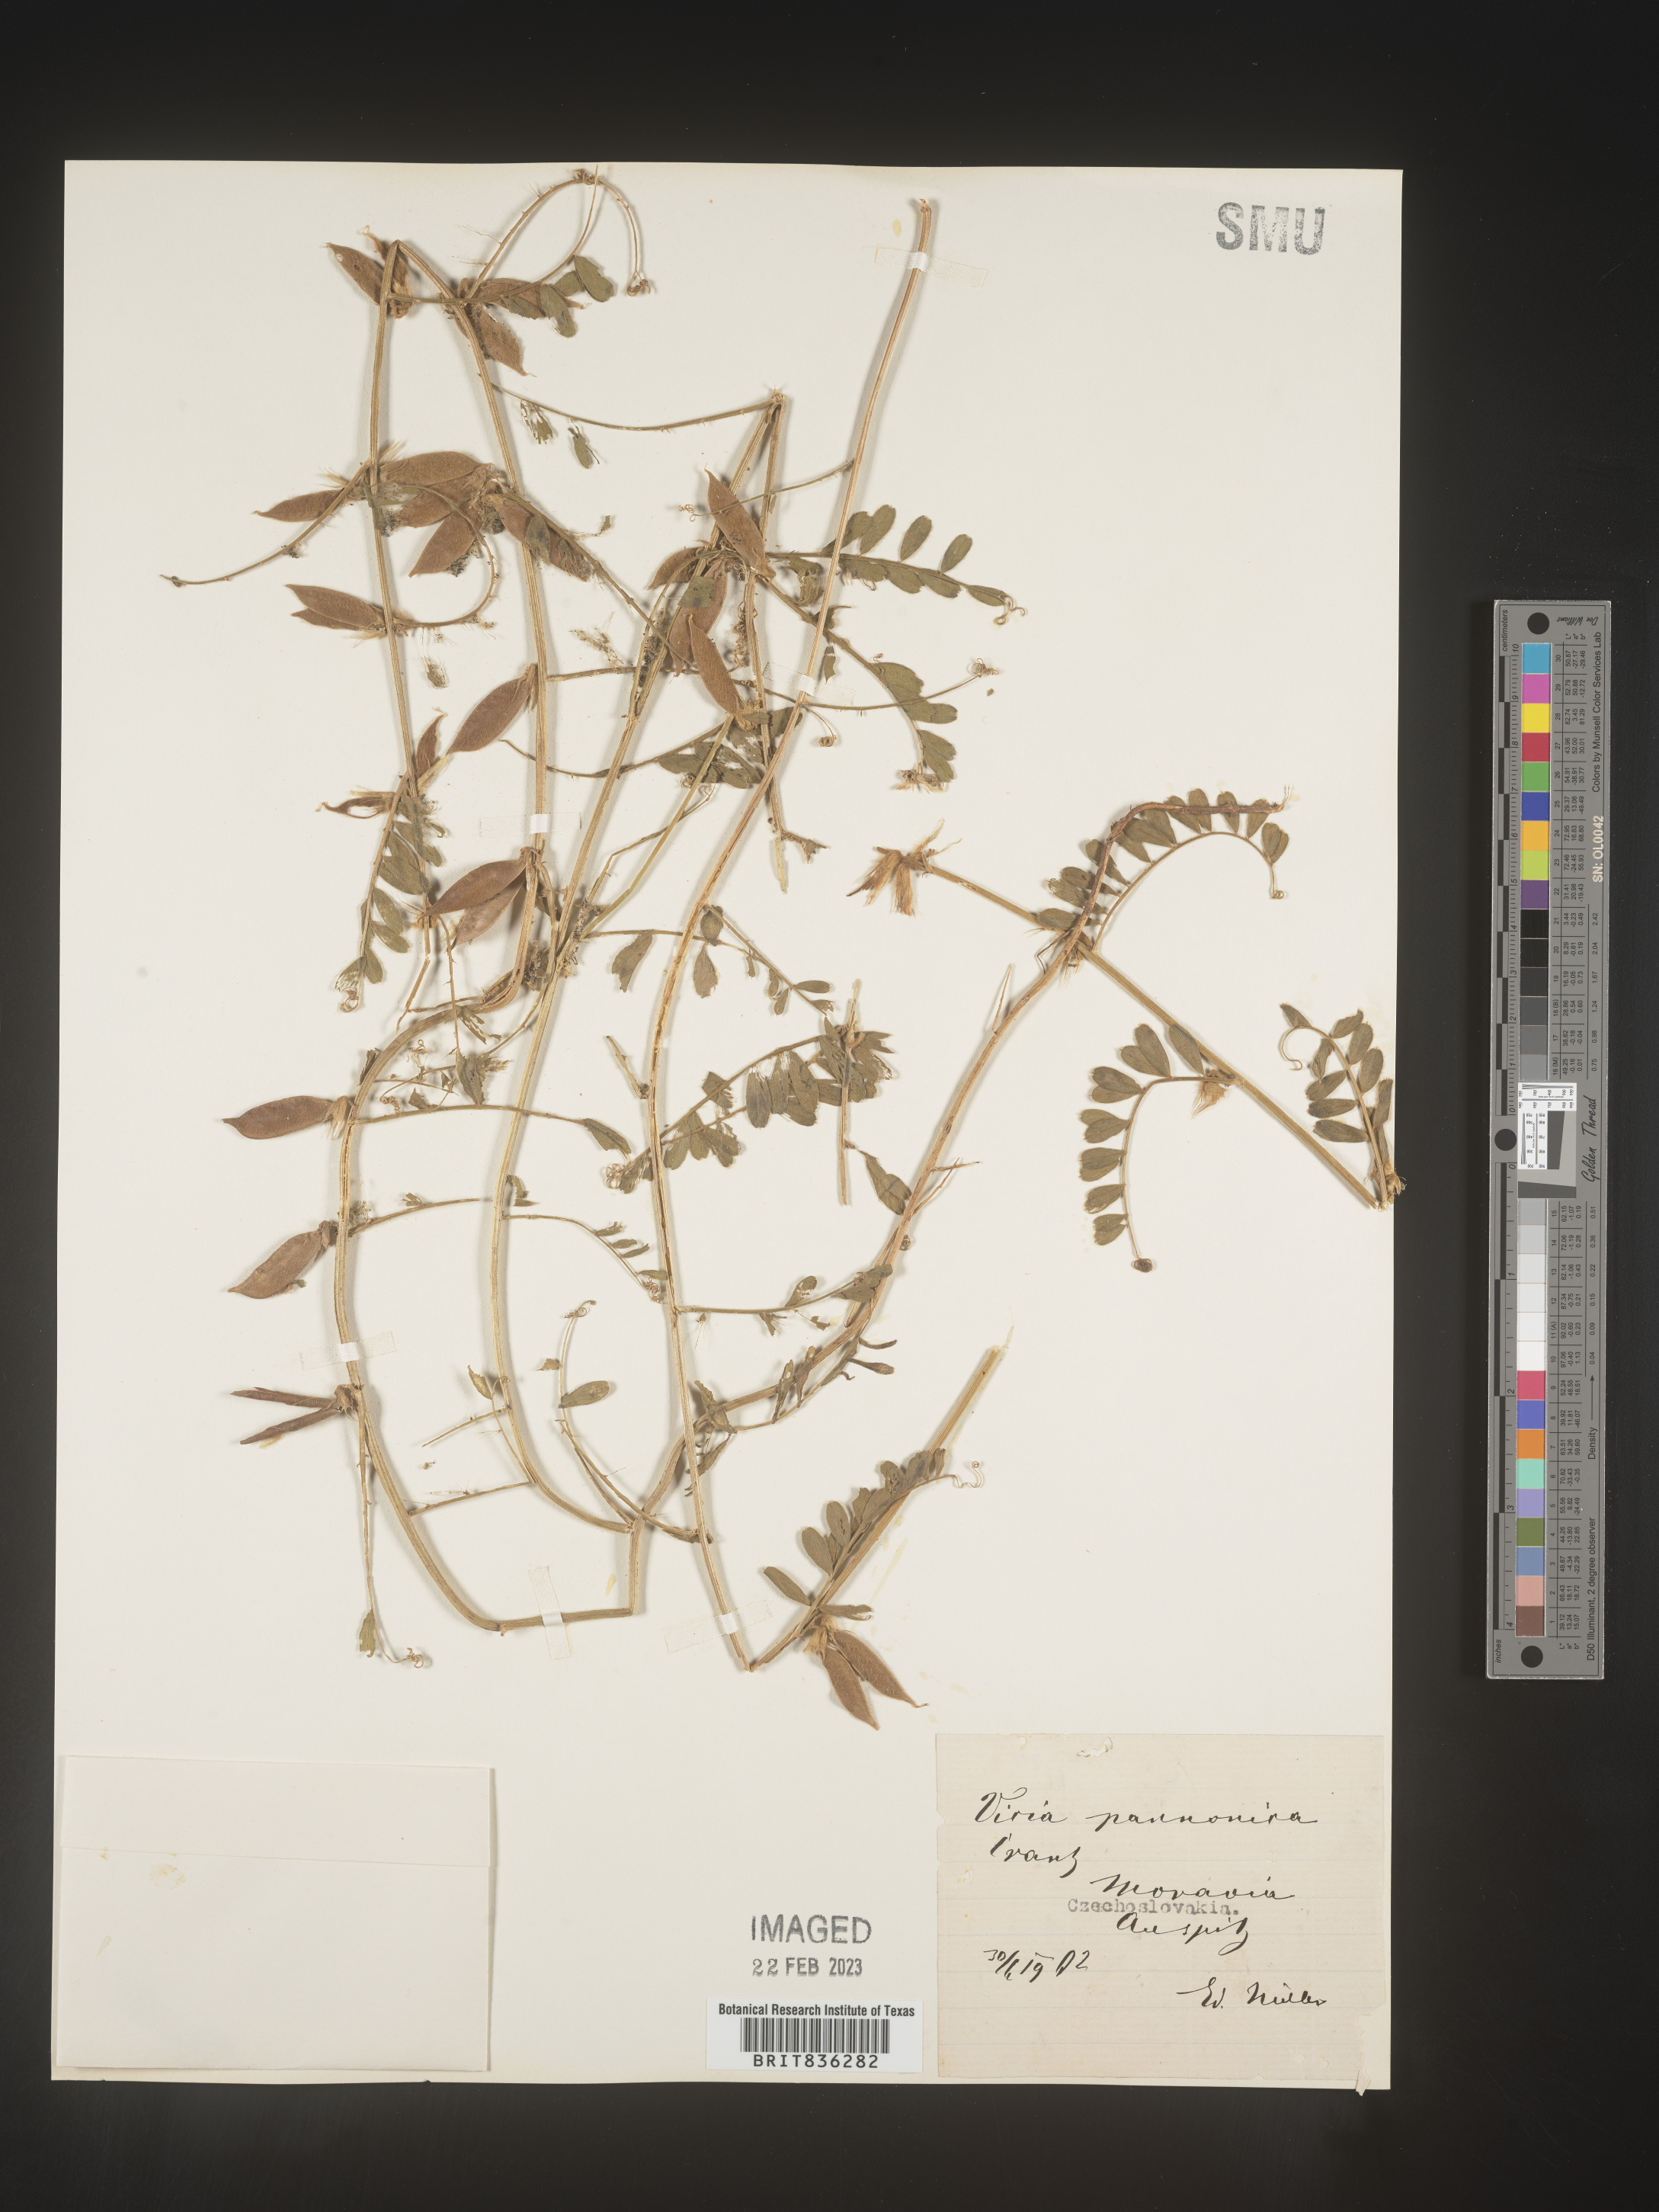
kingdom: Plantae
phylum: Tracheophyta
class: Magnoliopsida
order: Fabales
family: Fabaceae
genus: Vicia
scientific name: Vicia
